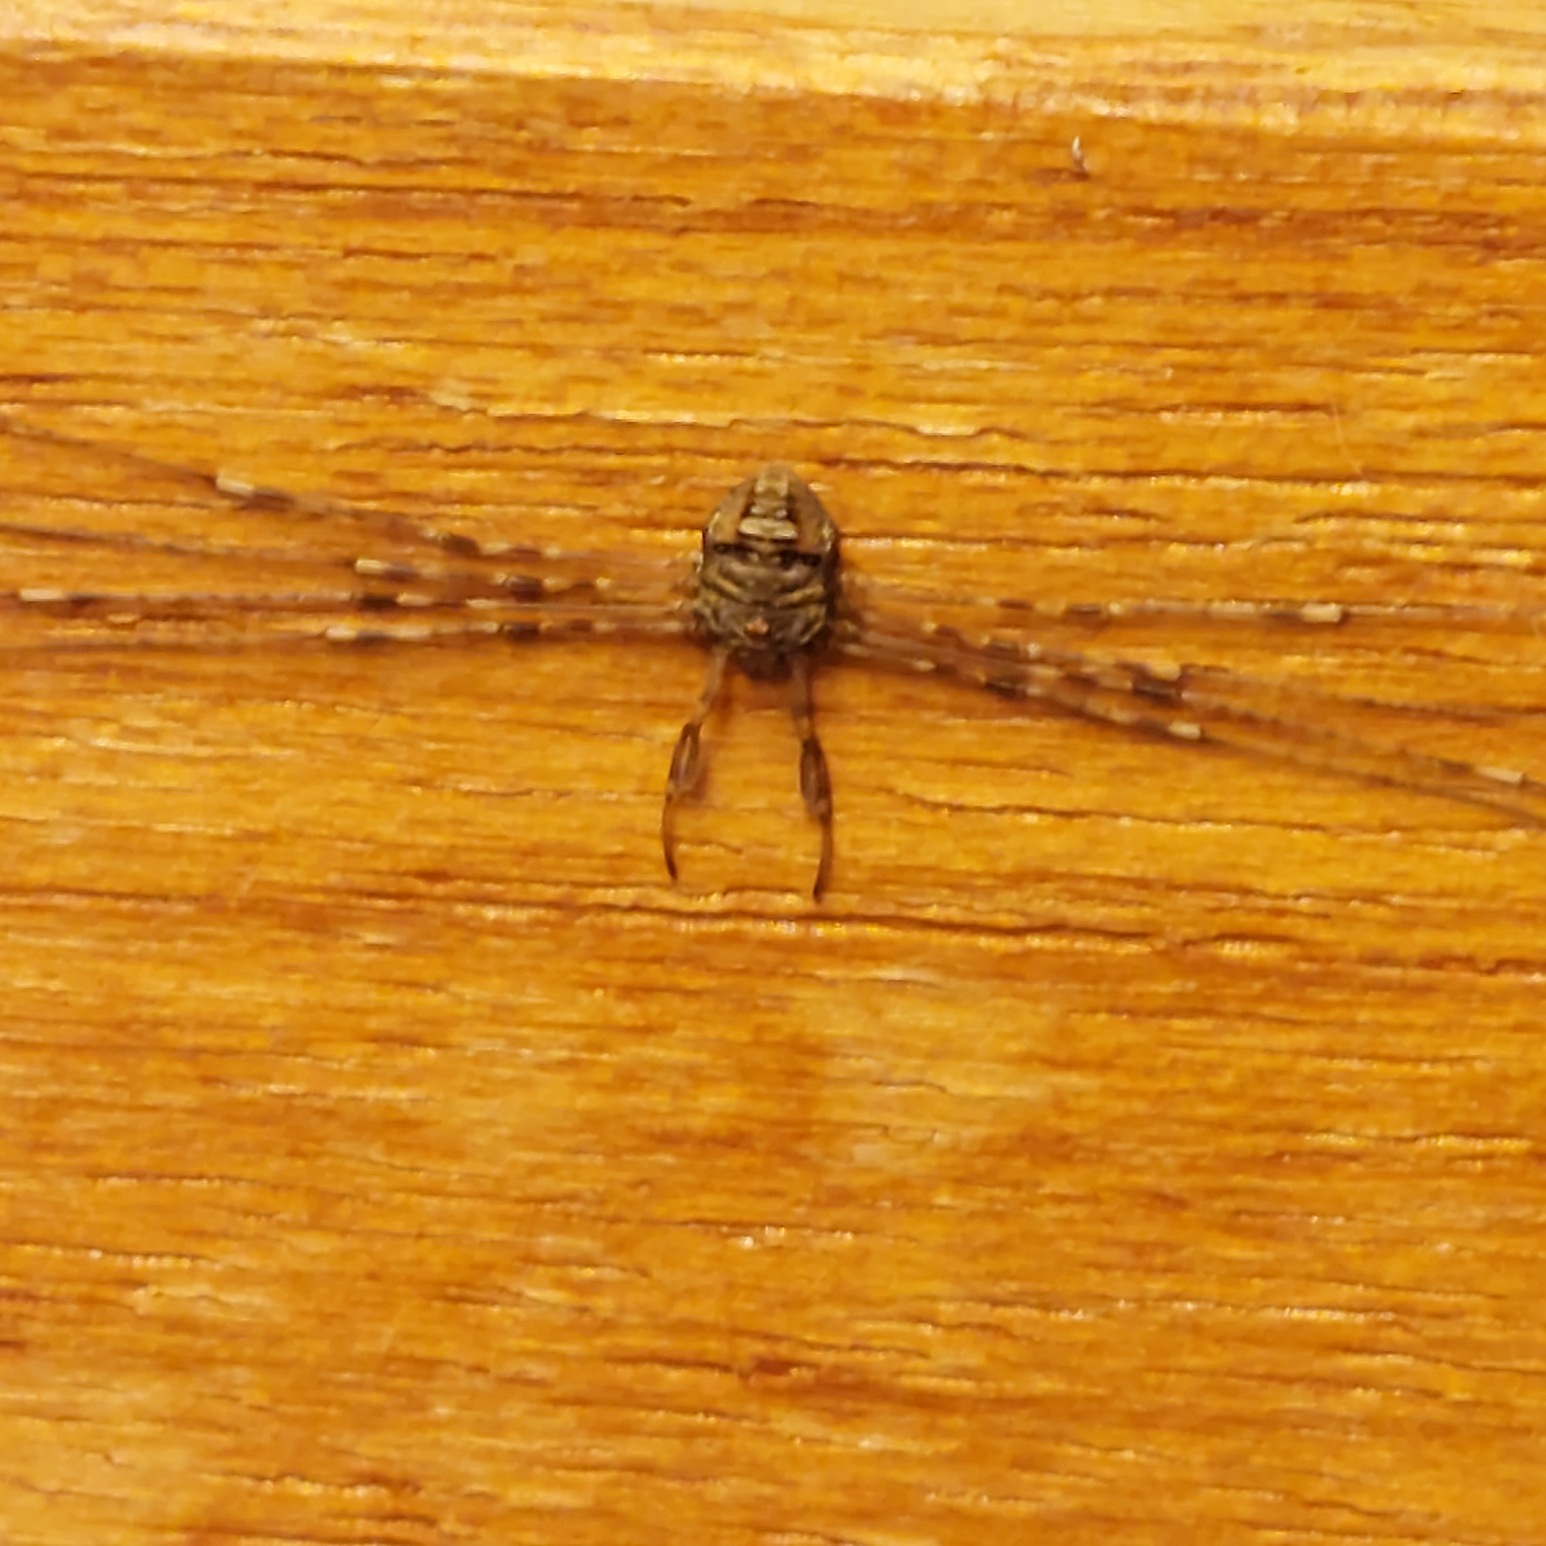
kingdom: Animalia
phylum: Arthropoda
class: Arachnida
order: Opiliones
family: Phalangiidae
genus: Dicranopalpus
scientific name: Dicranopalpus ramosus
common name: Gaffelmejer
